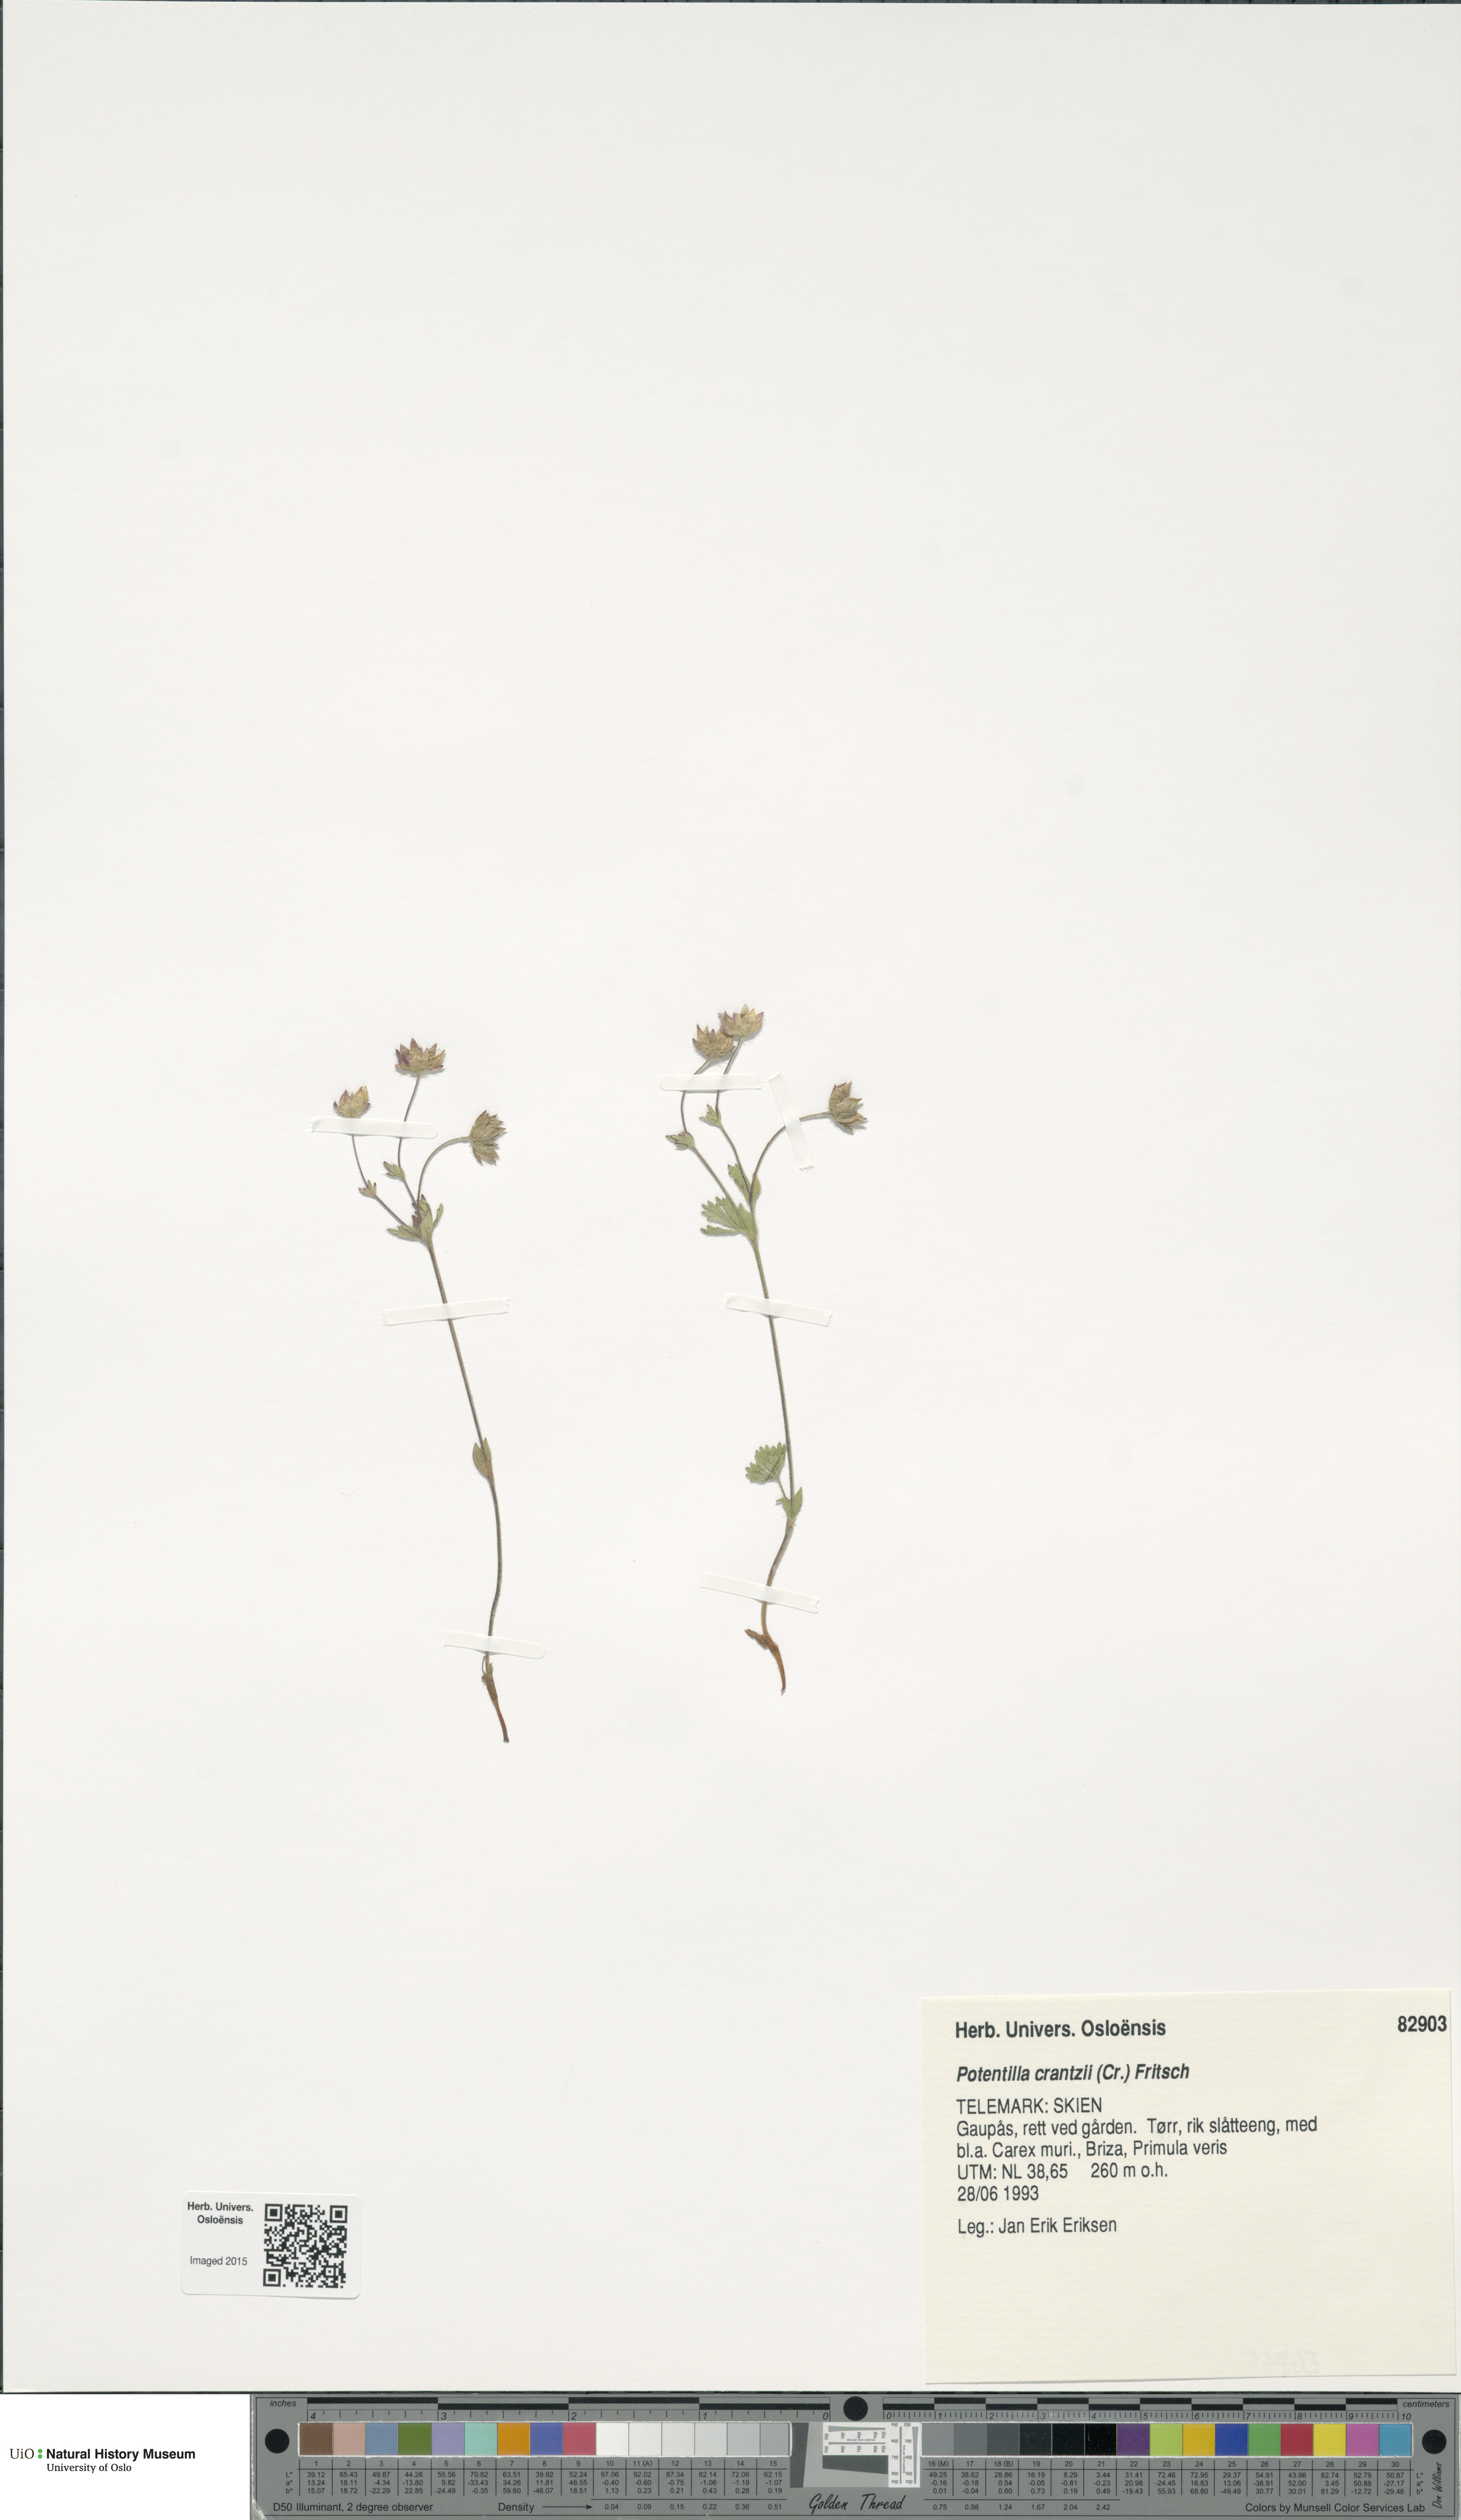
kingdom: Plantae
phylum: Tracheophyta
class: Magnoliopsida
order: Rosales
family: Rosaceae
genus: Potentilla
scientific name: Potentilla crantzii
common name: Alpine cinquefoil
